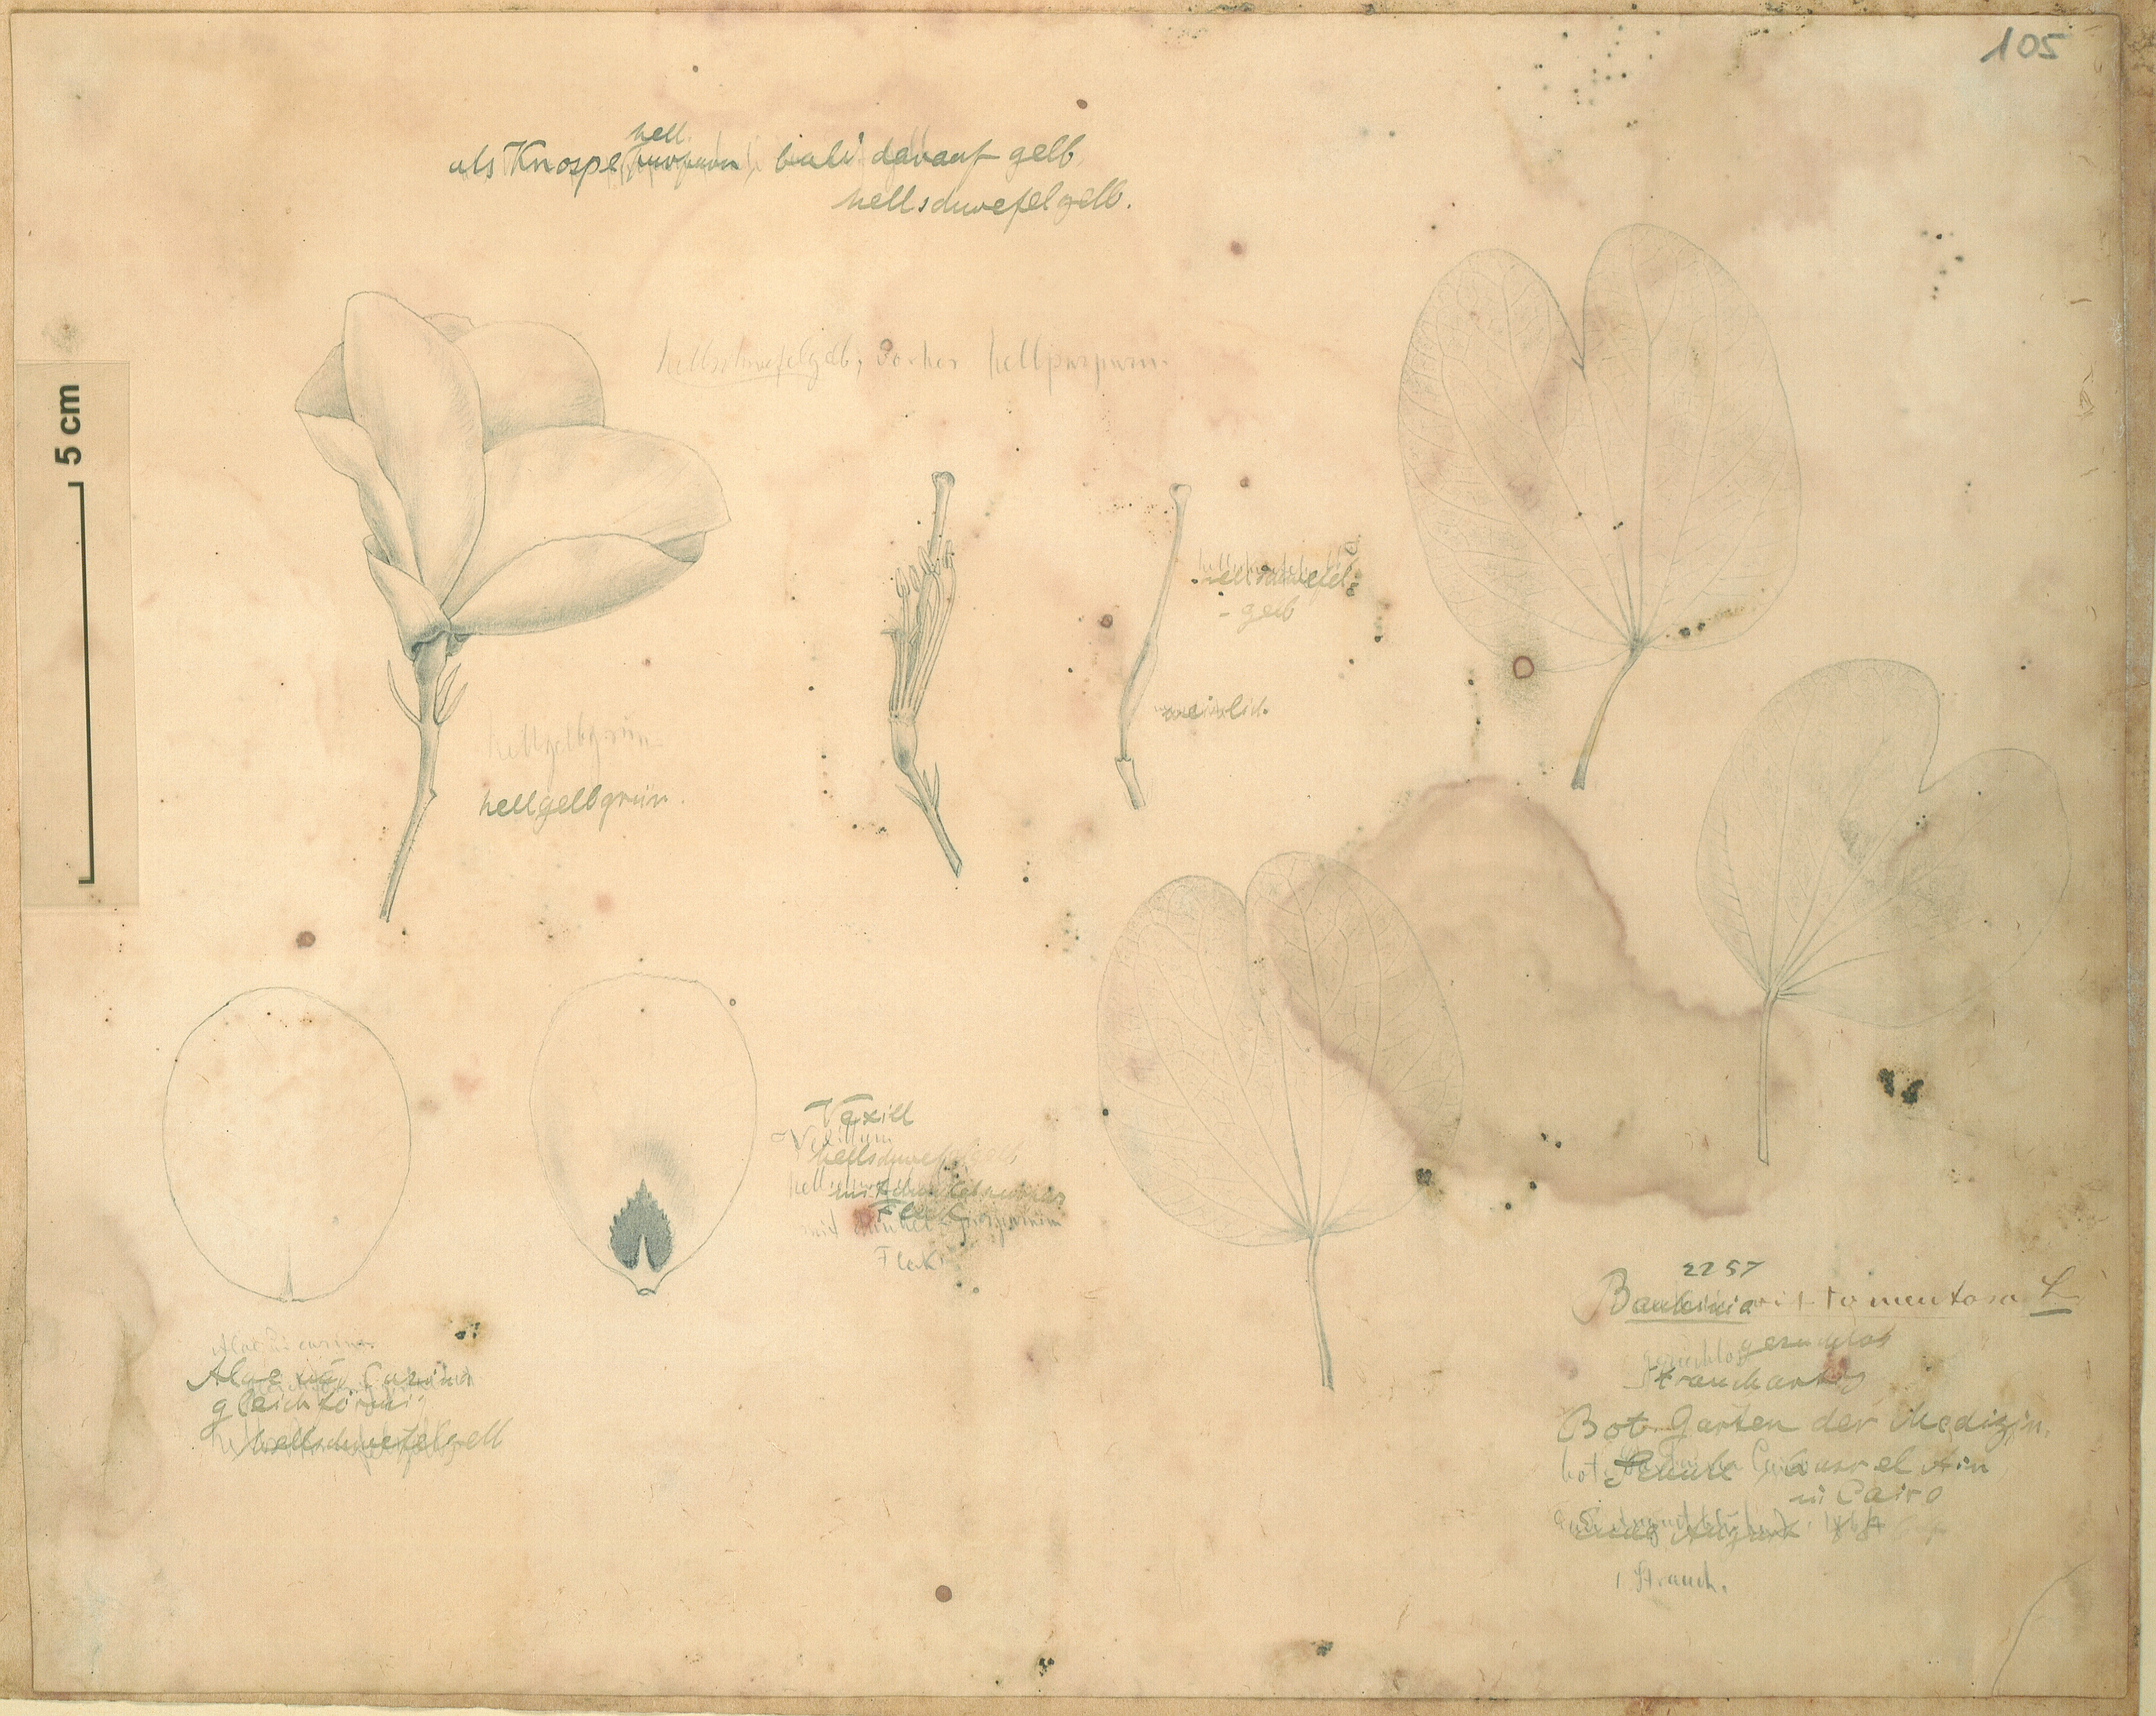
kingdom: Plantae
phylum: Tracheophyta
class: Magnoliopsida
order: Fabales
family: Fabaceae
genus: Bauhinia
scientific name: Bauhinia tomentosa
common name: Bell bauhinia
